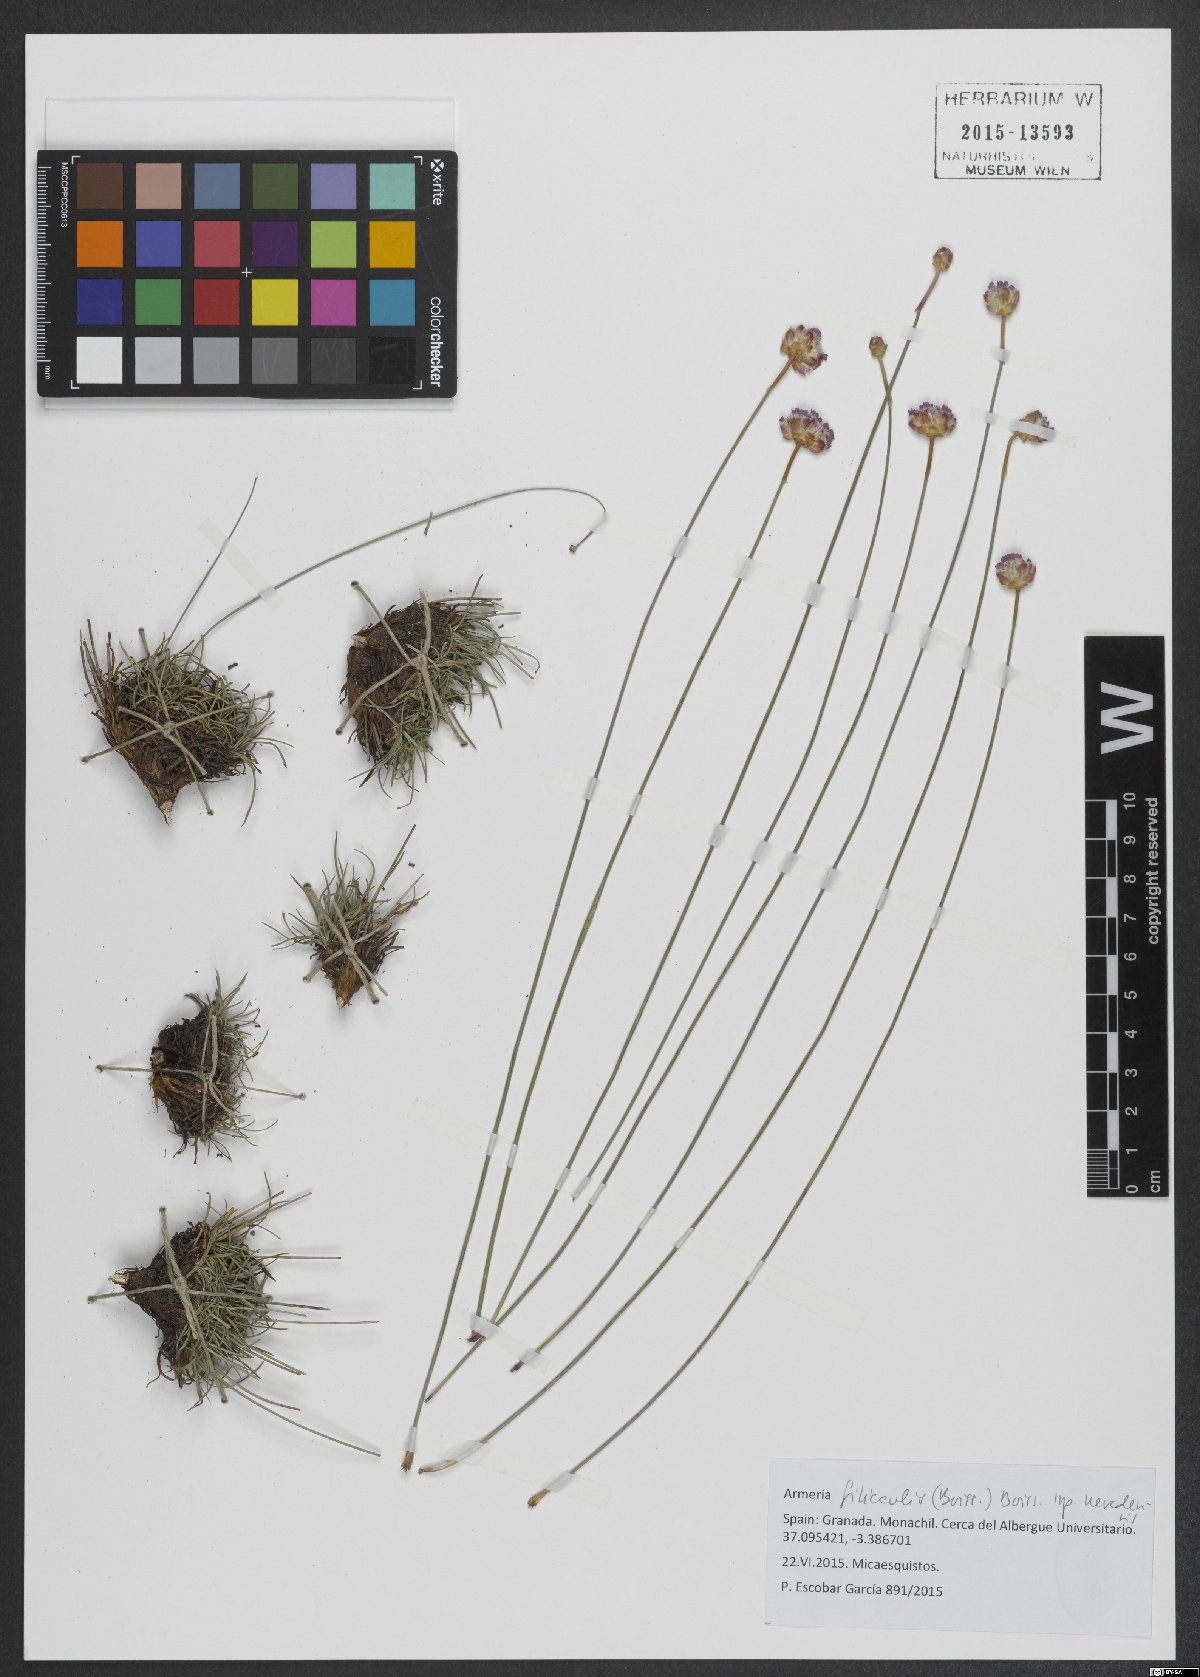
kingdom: Plantae
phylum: Tracheophyta
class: Magnoliopsida
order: Caryophyllales
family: Plumbaginaceae
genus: Armeria
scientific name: Armeria filicaulis
